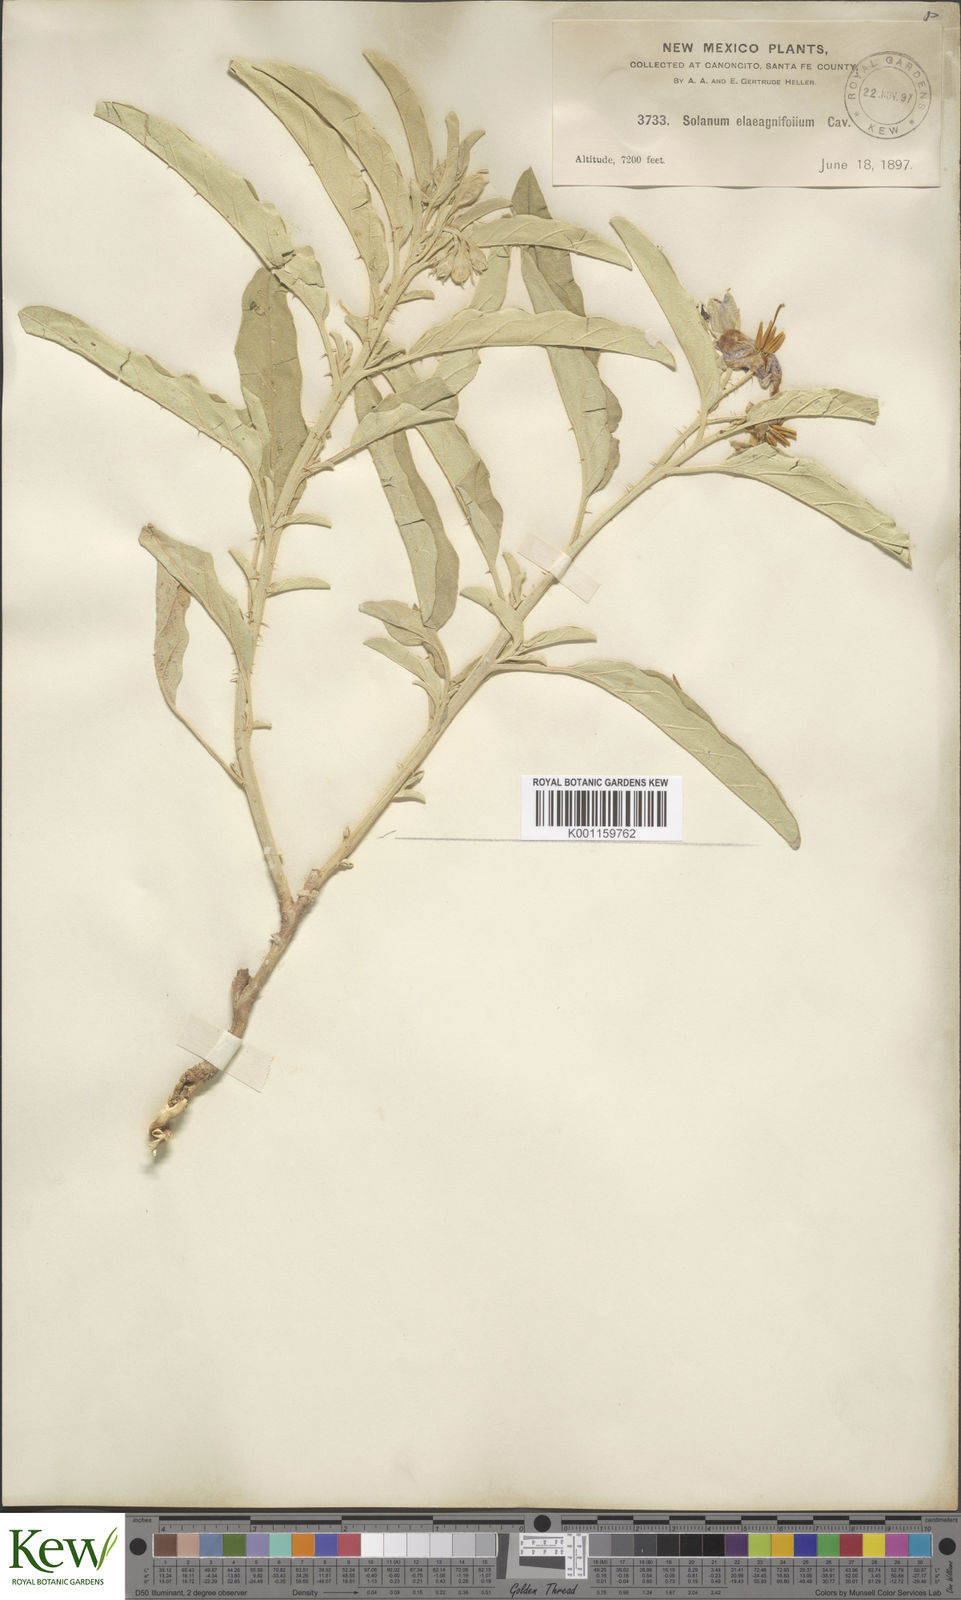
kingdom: Plantae
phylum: Tracheophyta
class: Magnoliopsida
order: Solanales
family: Solanaceae
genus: Solanum
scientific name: Solanum
